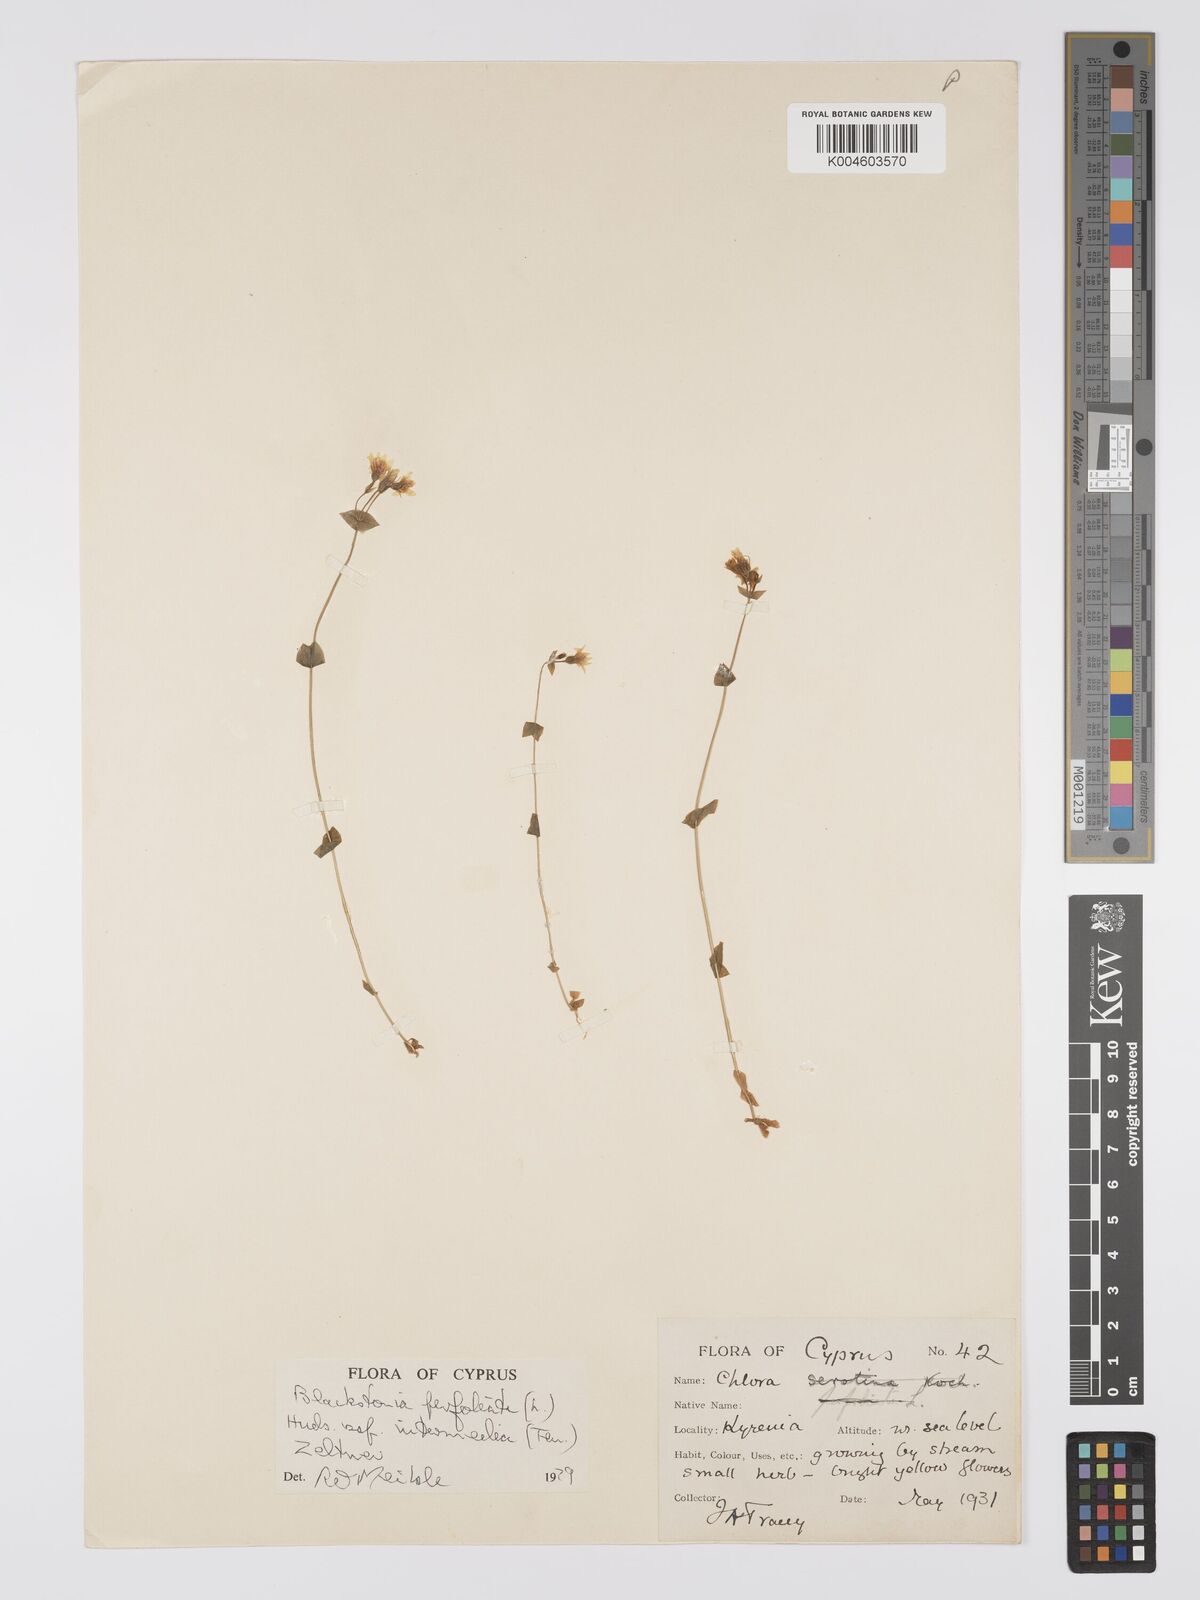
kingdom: Plantae
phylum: Tracheophyta
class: Magnoliopsida
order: Gentianales
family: Gentianaceae
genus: Blackstonia
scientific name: Blackstonia perfoliata
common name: Yellow-wort
